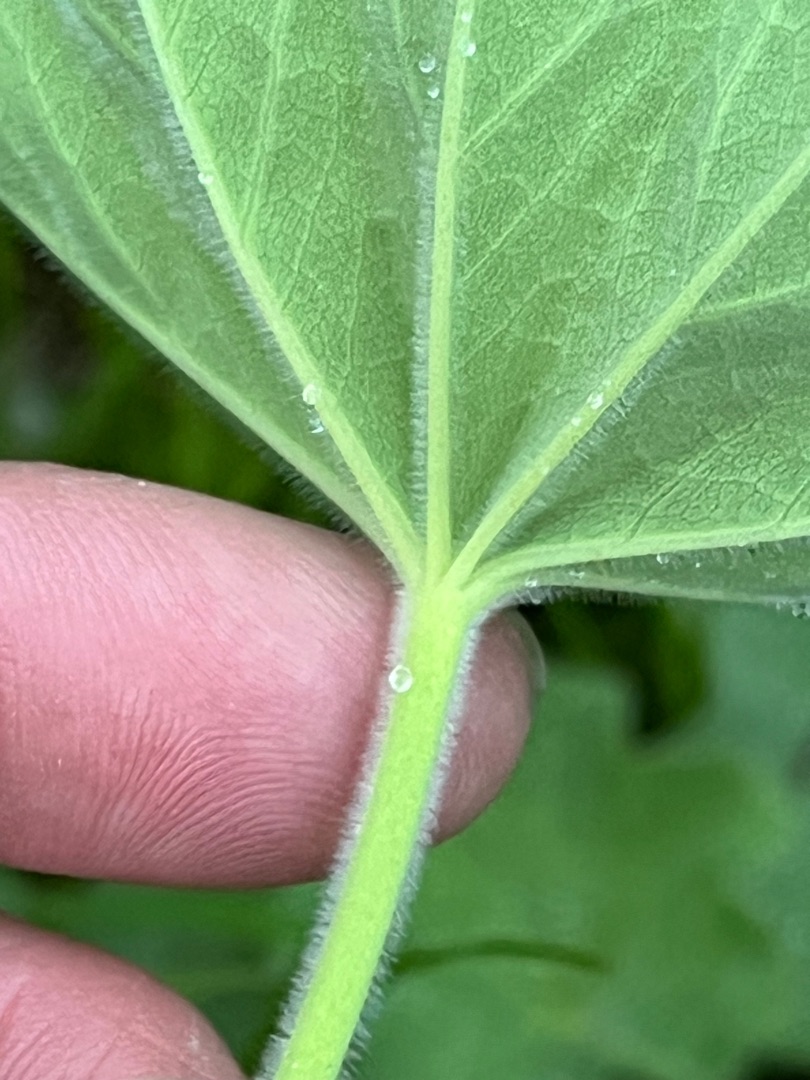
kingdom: Plantae
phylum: Tracheophyta
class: Magnoliopsida
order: Rosales
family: Rosaceae
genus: Alchemilla
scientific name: Alchemilla mollis
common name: Lådden løvefod
